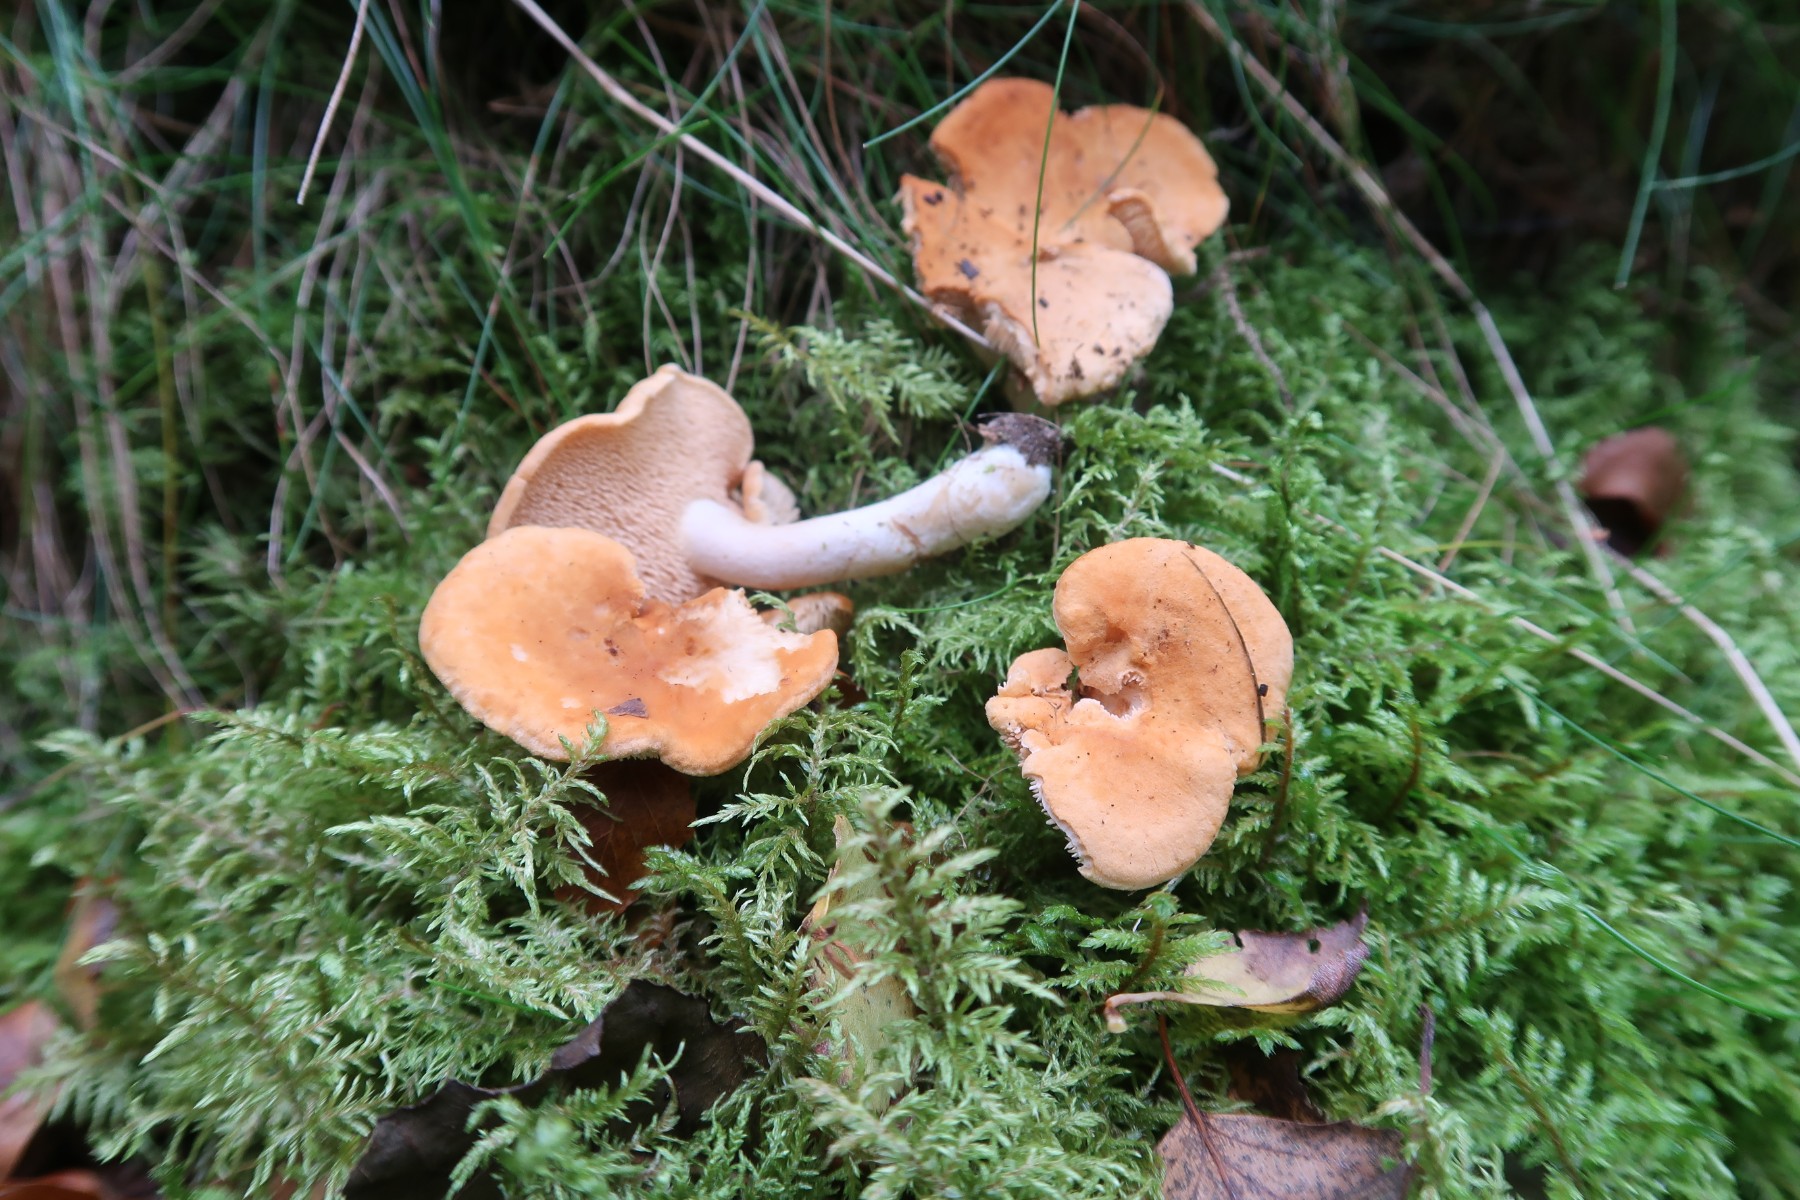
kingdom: Fungi
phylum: Basidiomycota
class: Agaricomycetes
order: Cantharellales
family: Hydnaceae
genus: Hydnum
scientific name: Hydnum ellipsosporum
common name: tandet pigsvamp
